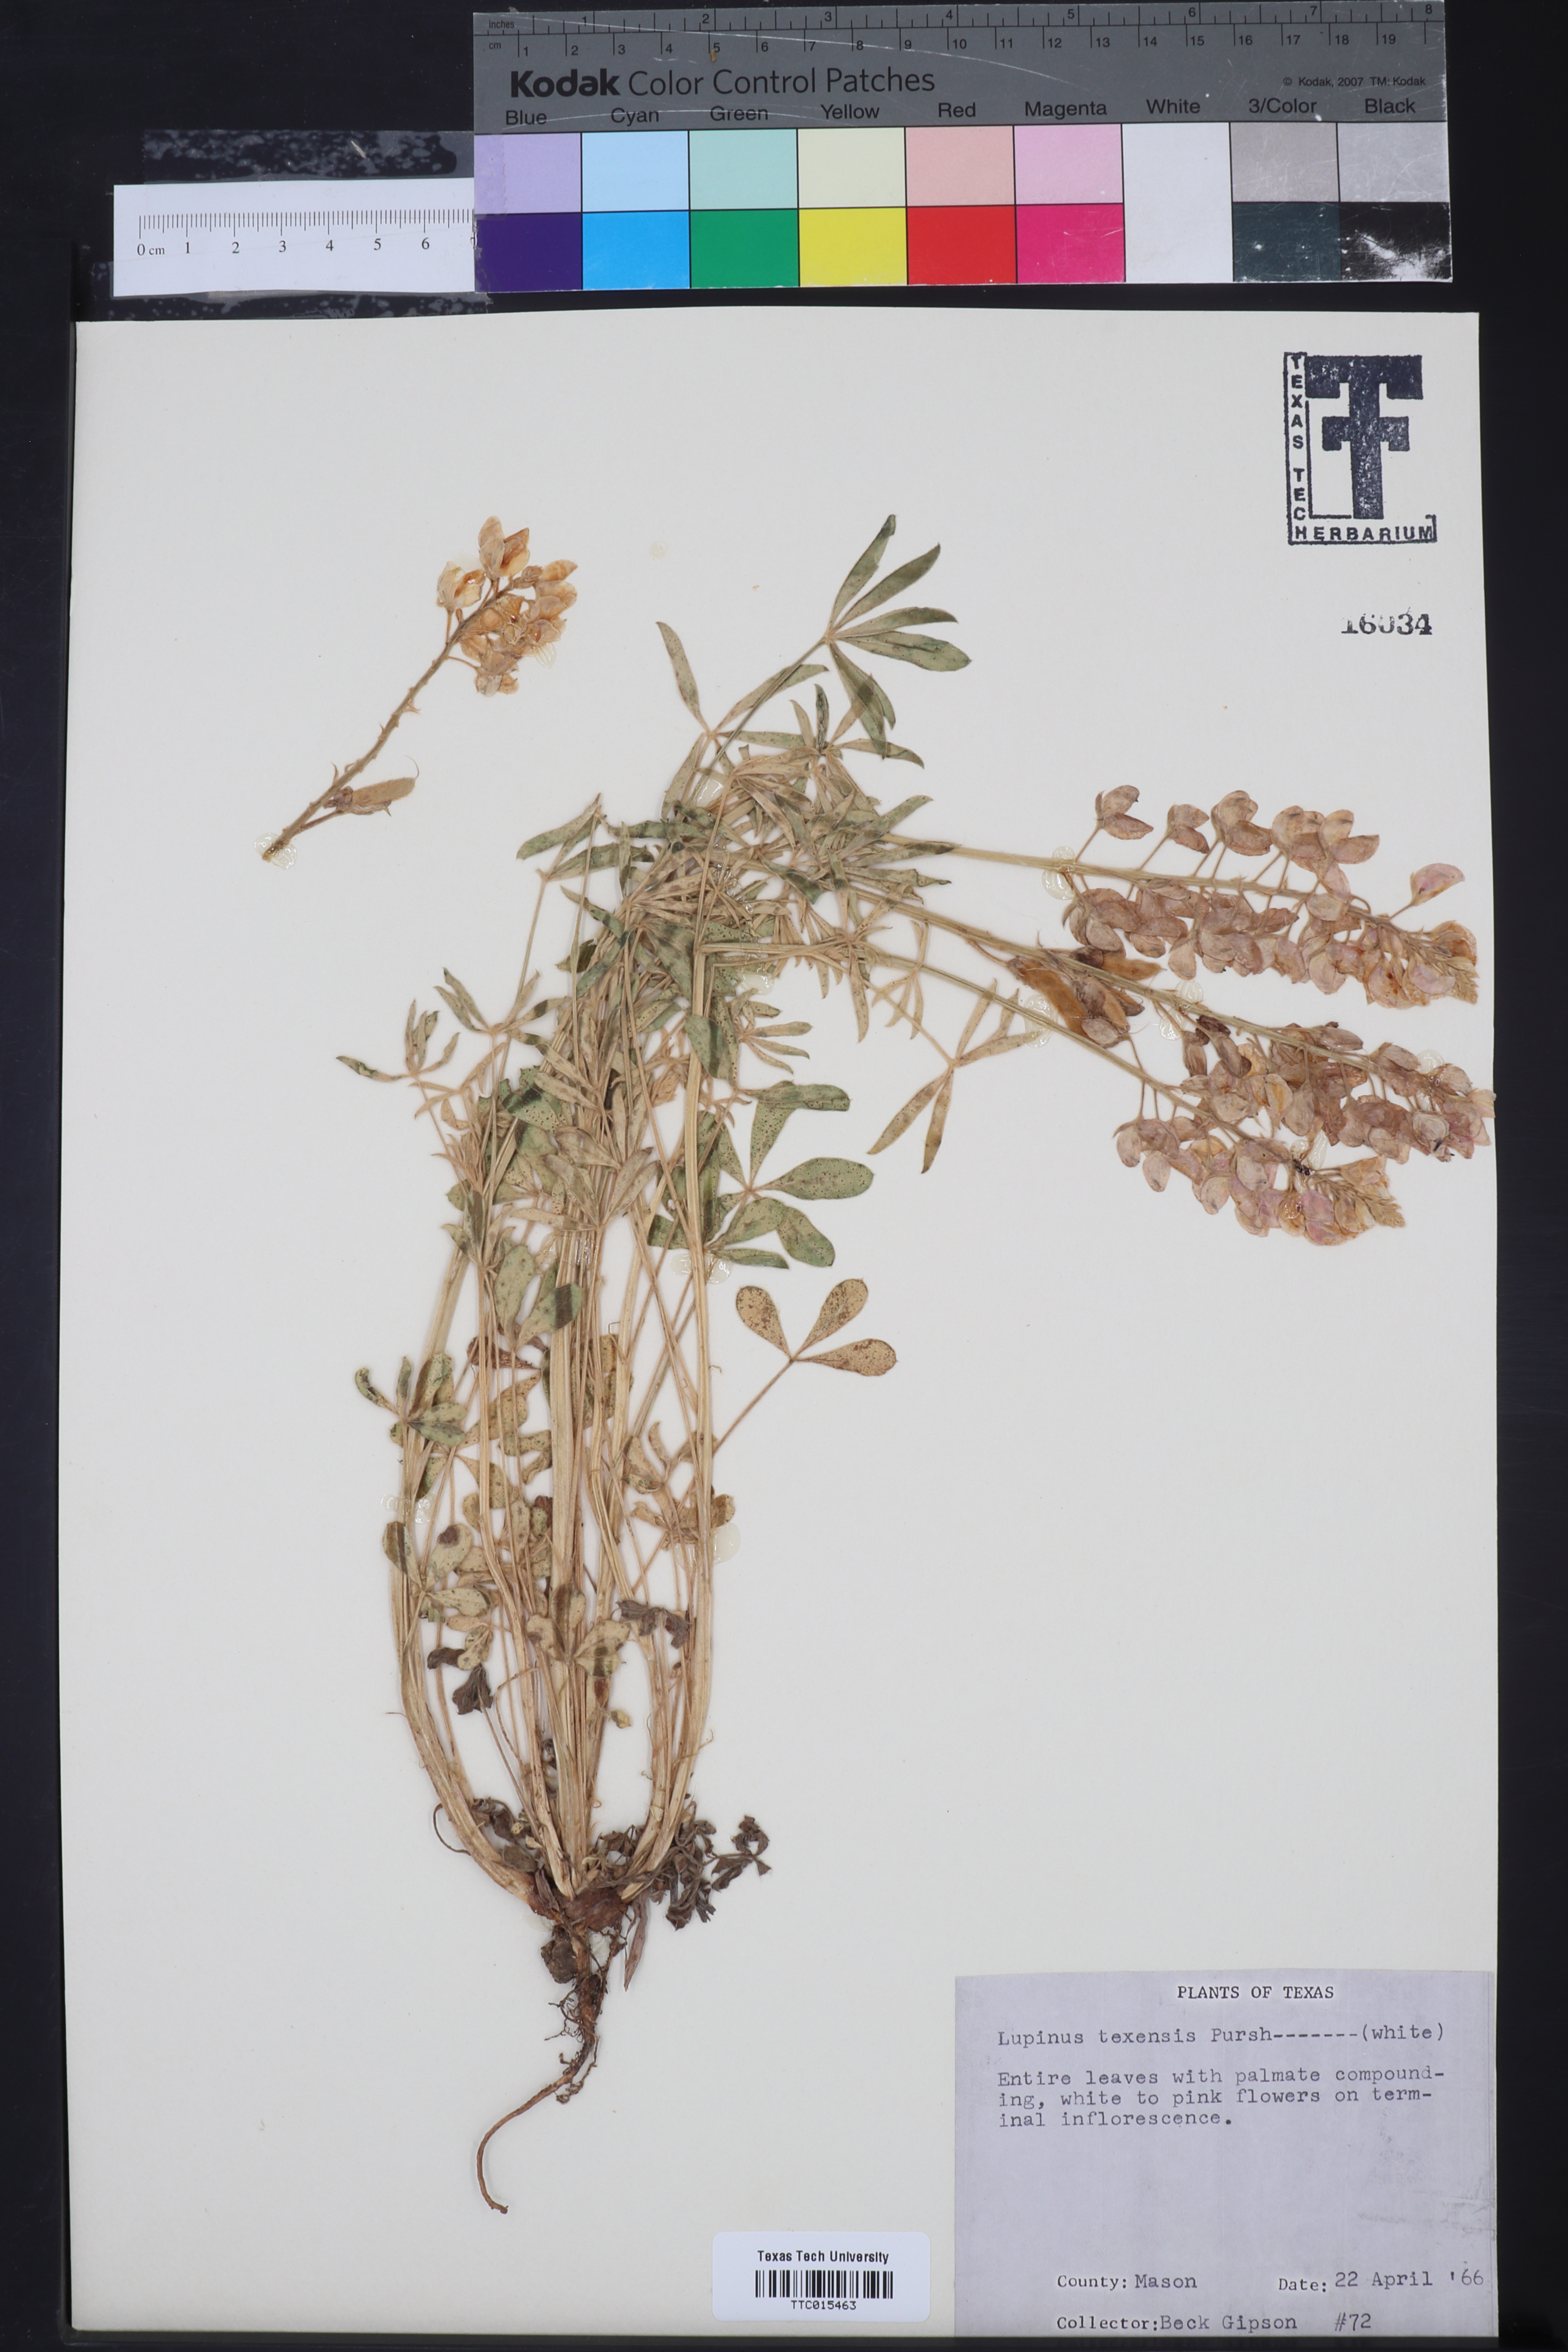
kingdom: Plantae
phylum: Tracheophyta
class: Magnoliopsida
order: Fabales
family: Fabaceae
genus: Lupinus
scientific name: Lupinus texensis
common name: Texas bluebonnet
